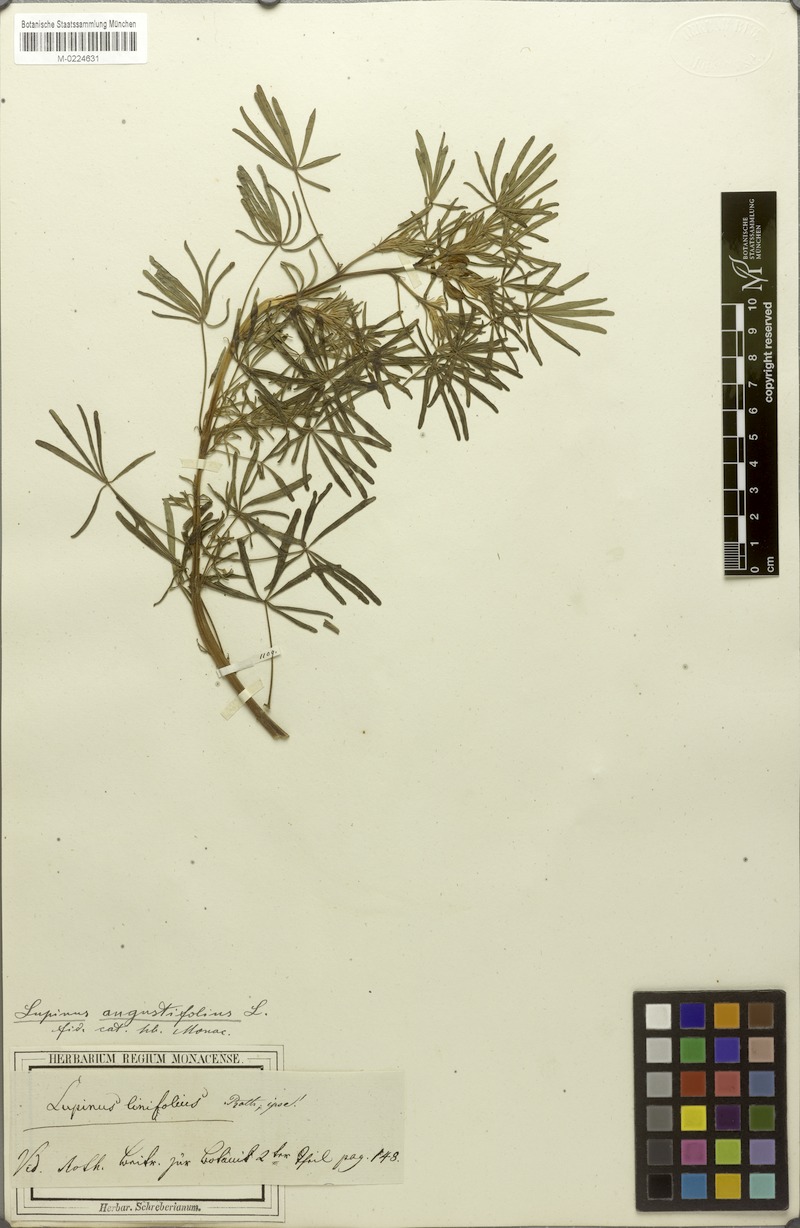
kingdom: Plantae
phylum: Tracheophyta
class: Magnoliopsida
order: Fabales
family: Fabaceae
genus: Lupinus
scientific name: Lupinus angustifolius
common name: Narrow-leaved lupin
